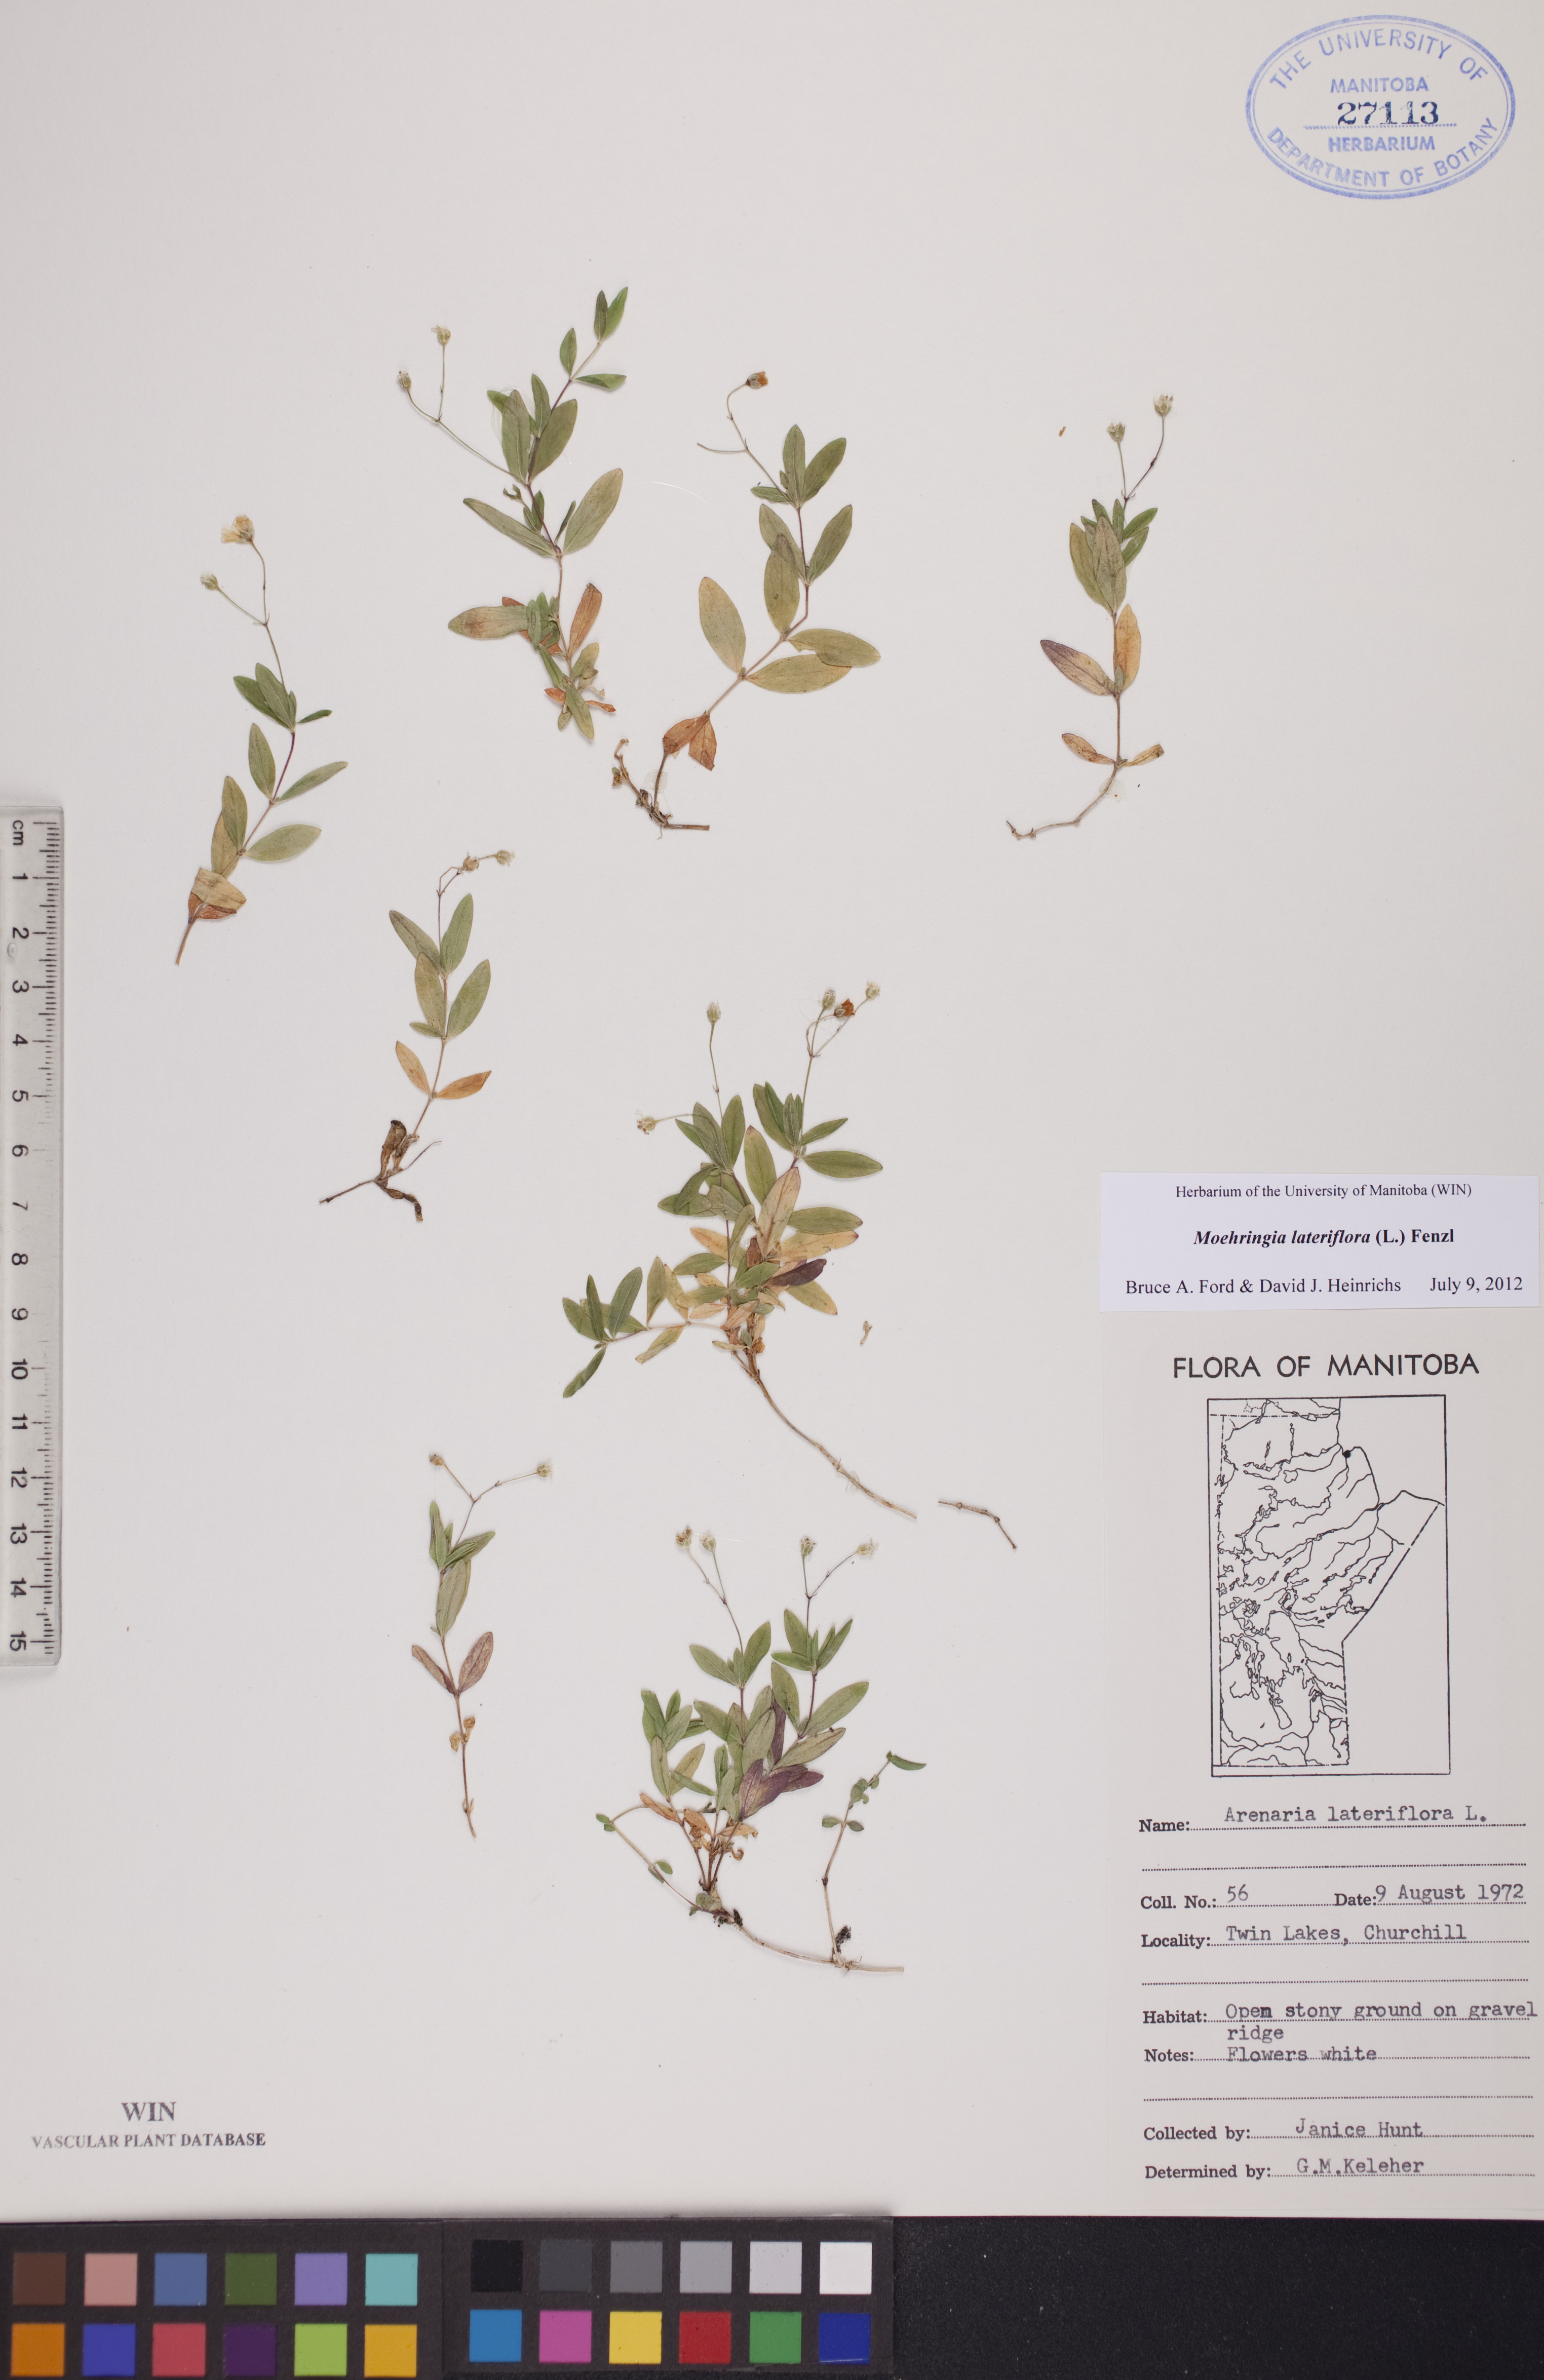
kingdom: Plantae
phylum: Tracheophyta
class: Magnoliopsida
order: Caryophyllales
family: Caryophyllaceae
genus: Moehringia
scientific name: Moehringia lateriflora
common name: Blunt-leaved sandwort
